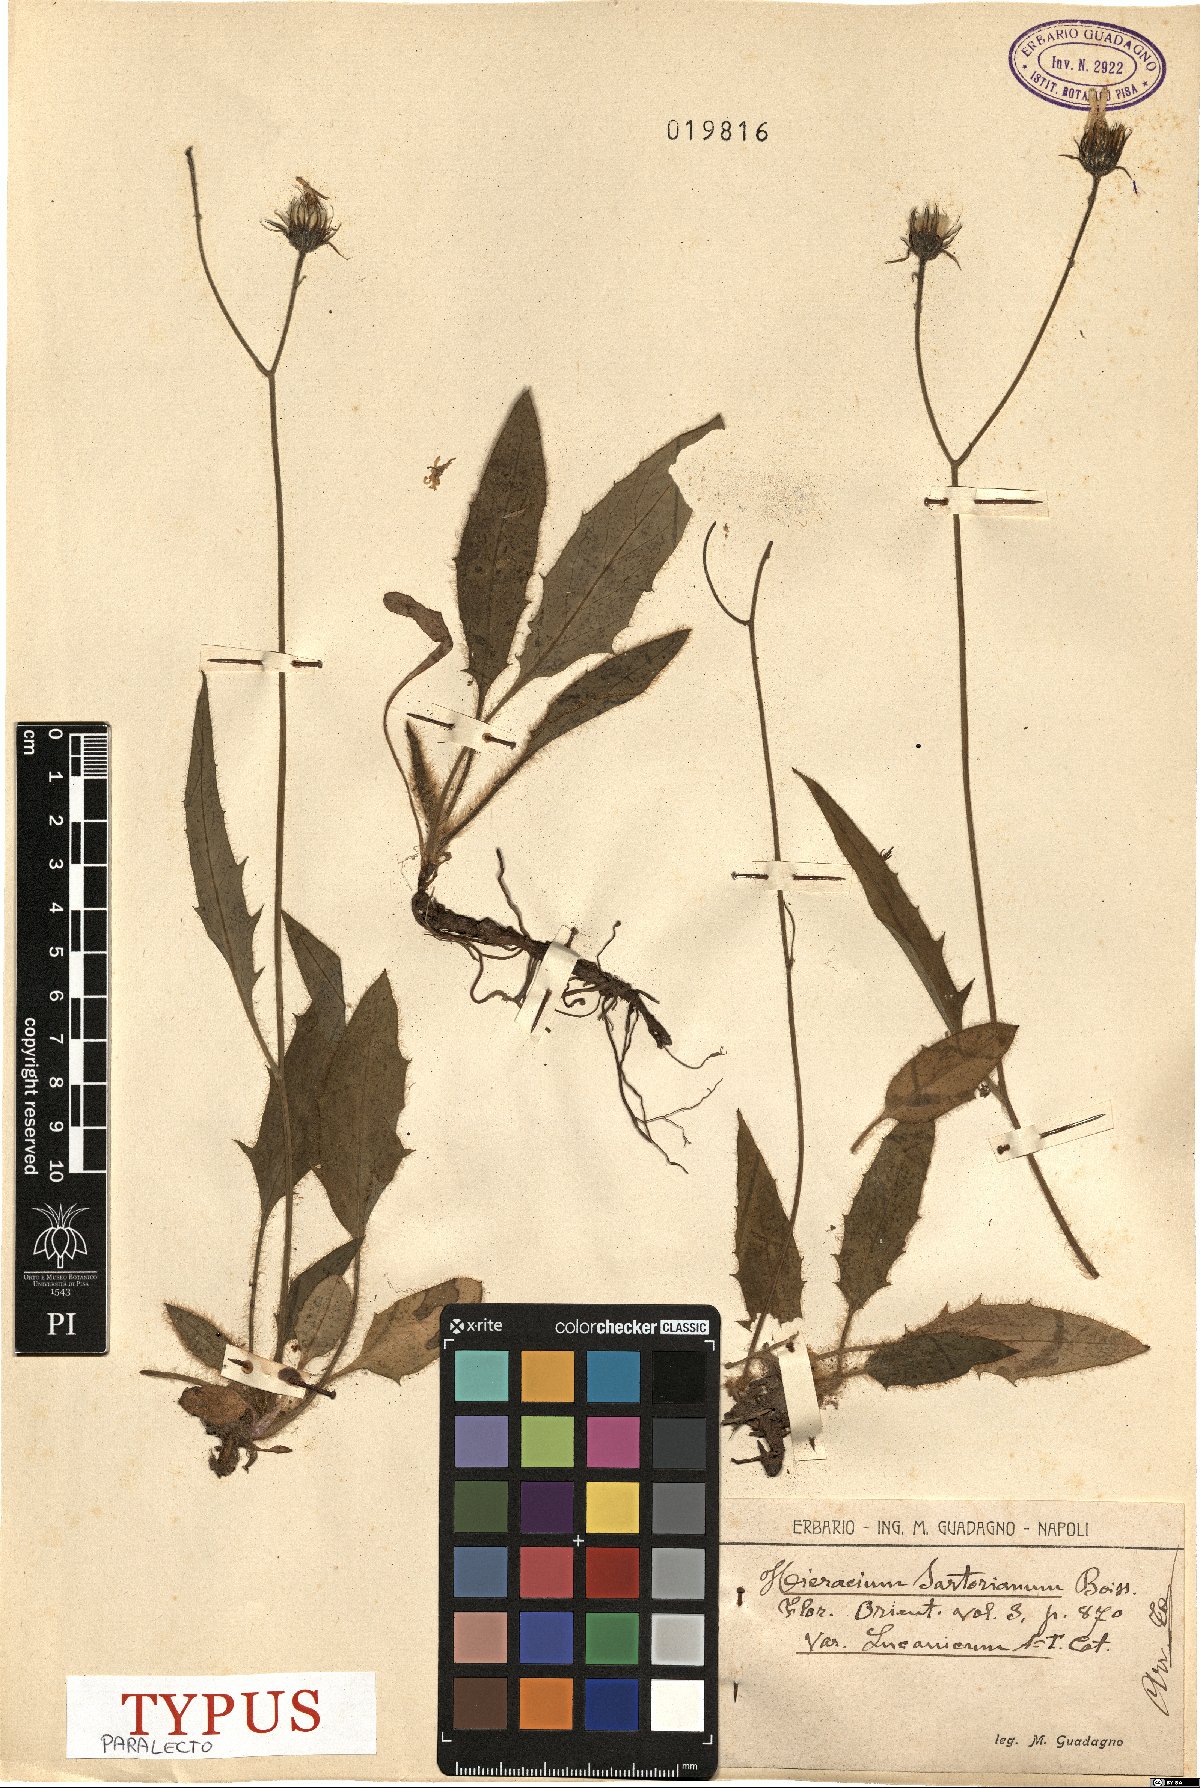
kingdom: Plantae
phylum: Tracheophyta
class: Magnoliopsida
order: Asterales
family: Asteraceae
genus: Hieracium
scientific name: Hieracium hypochoeroides
